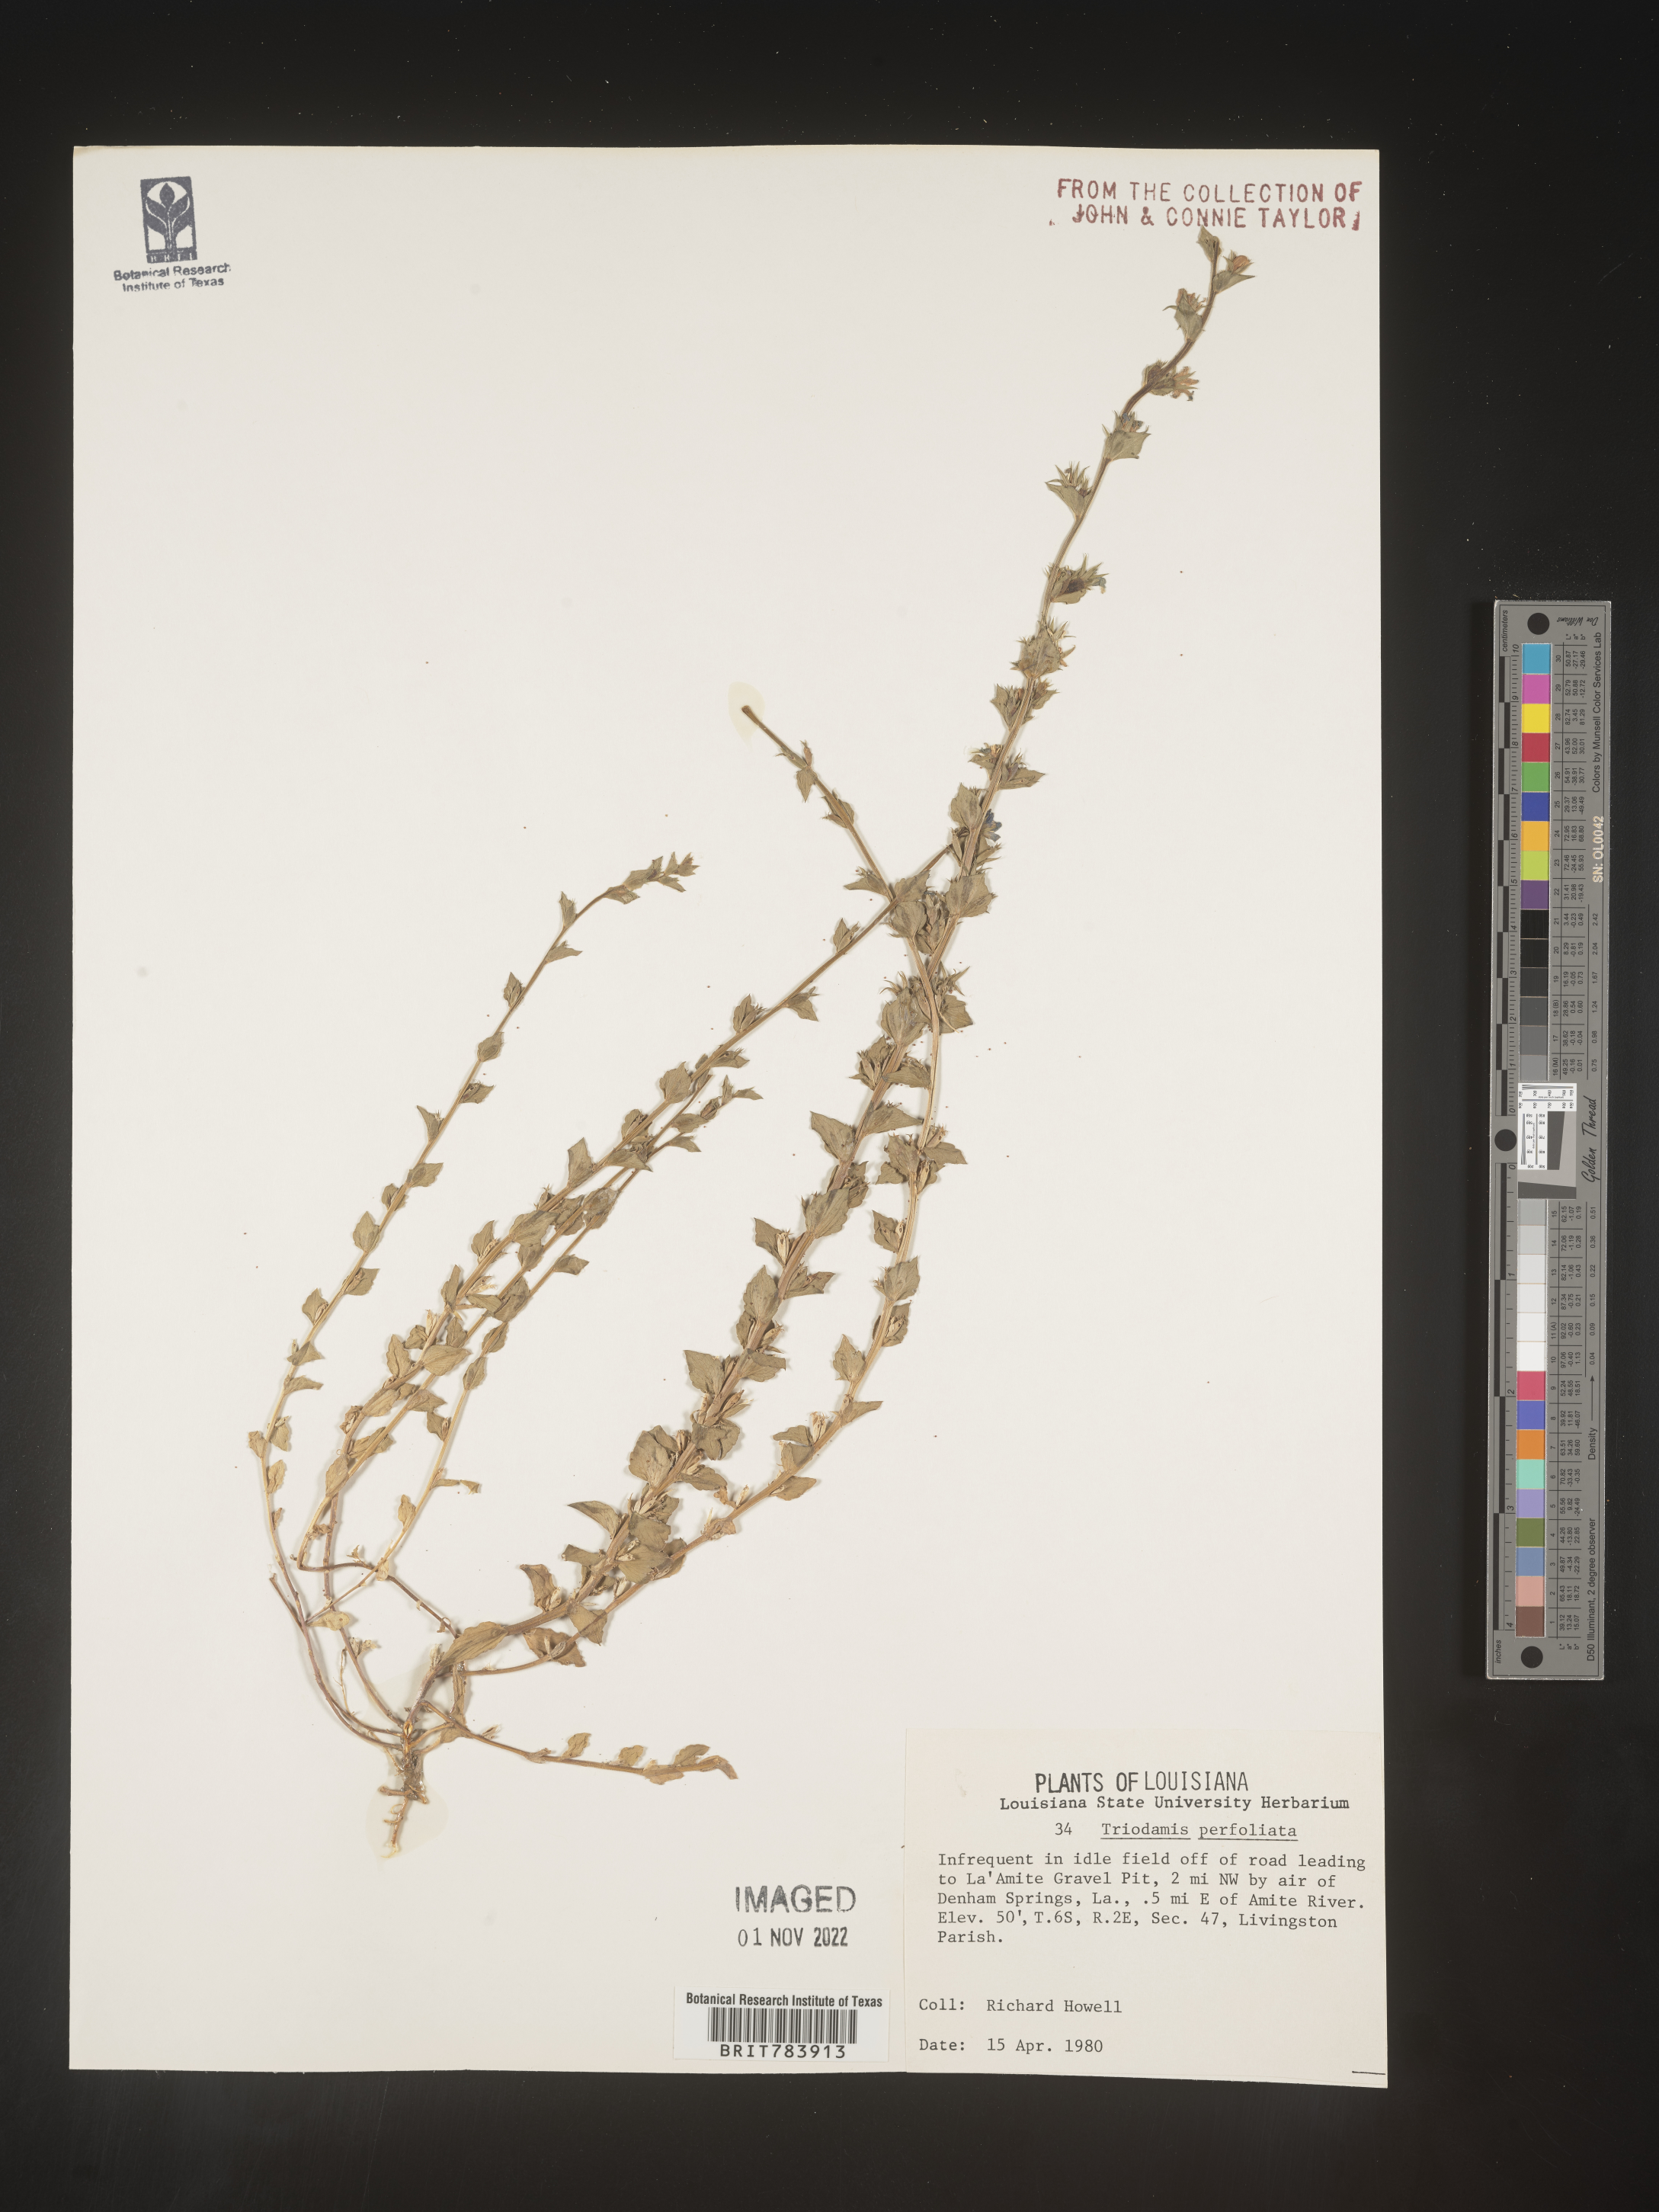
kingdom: Plantae
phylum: Tracheophyta
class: Magnoliopsida
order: Asterales
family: Campanulaceae
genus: Triodanis
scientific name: Triodanis perfoliata
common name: Clasping venus' looking-glass
